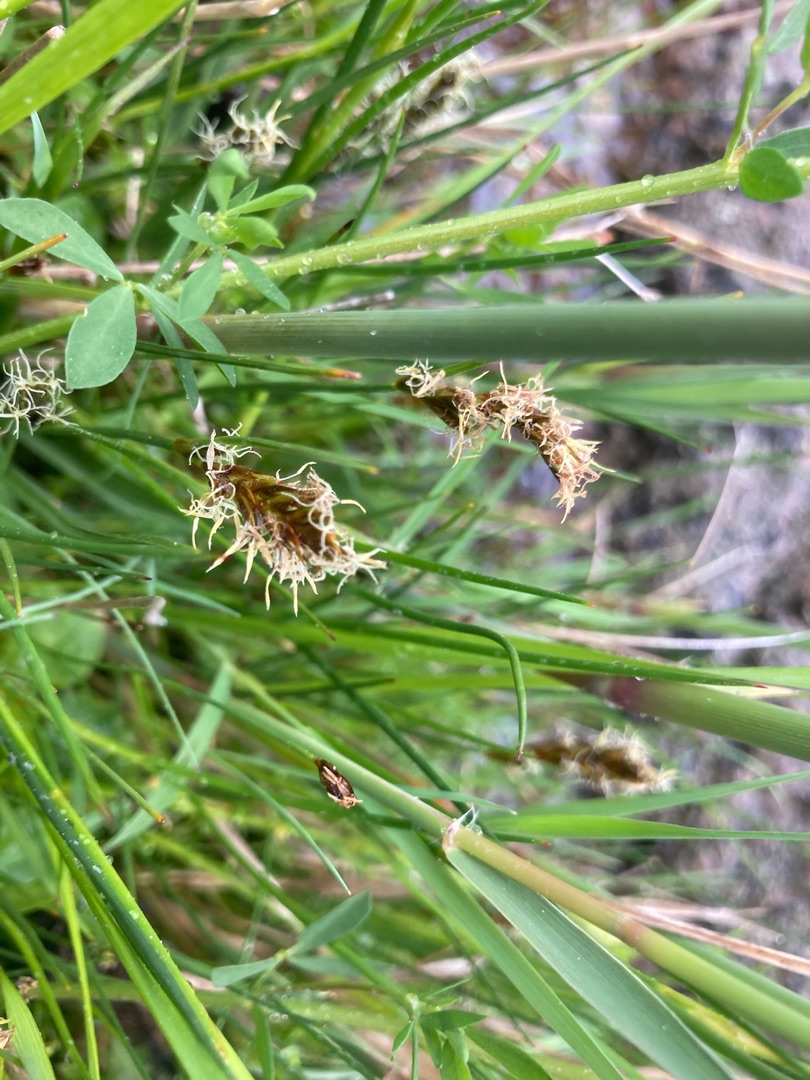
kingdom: Plantae
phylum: Tracheophyta
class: Liliopsida
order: Poales
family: Cyperaceae
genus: Blysmus
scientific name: Blysmus compressus
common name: Fladtrykt kogleaks
